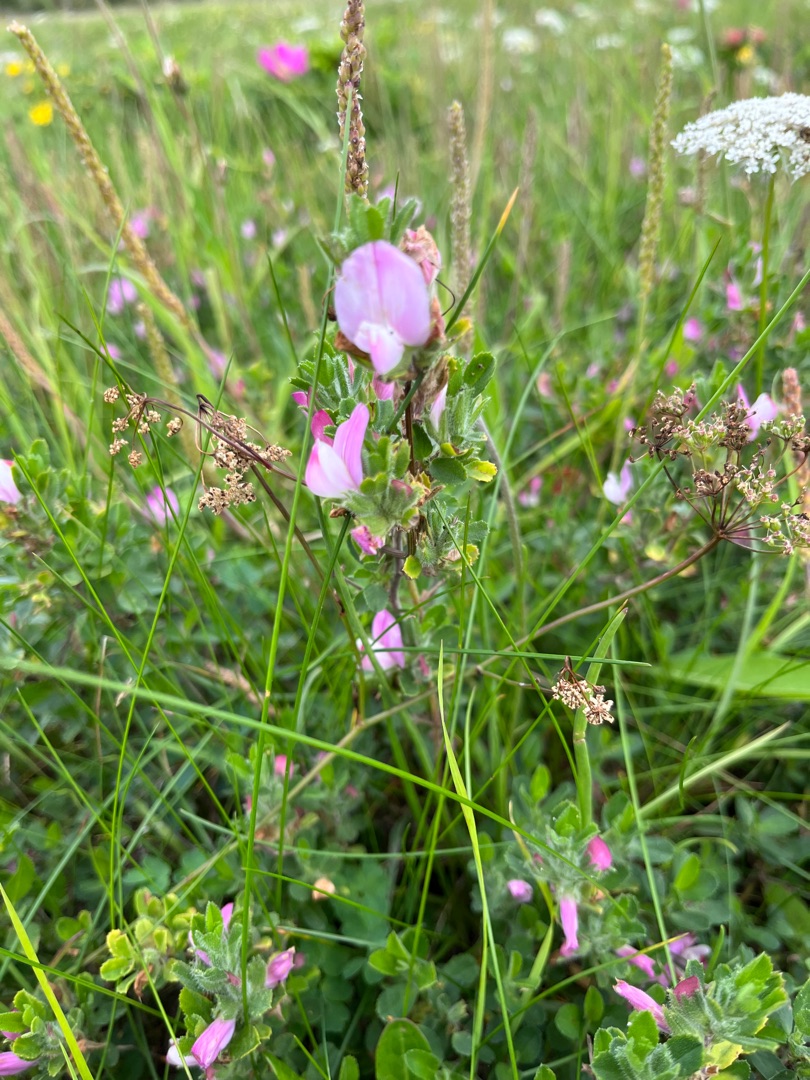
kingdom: Plantae
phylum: Tracheophyta
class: Magnoliopsida
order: Fabales
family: Fabaceae
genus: Ononis
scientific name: Ononis spinosa
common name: Mark-krageklo
